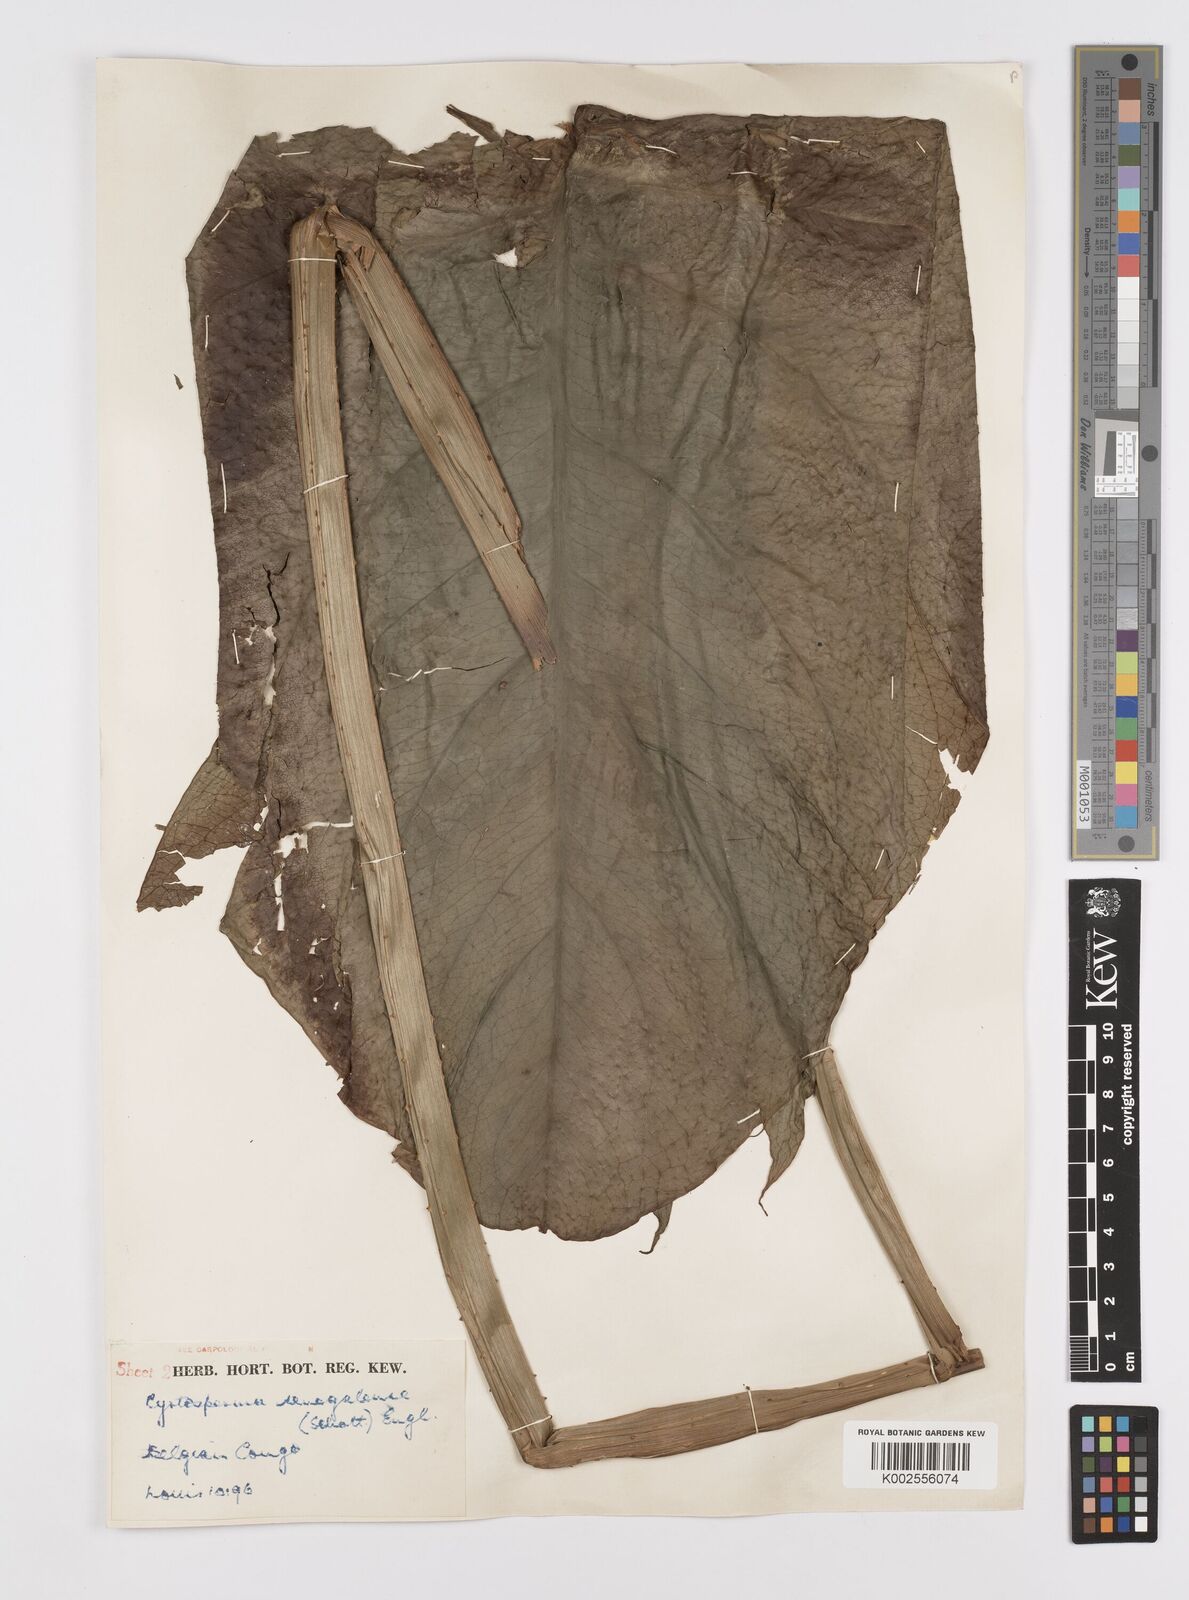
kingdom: Plantae
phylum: Tracheophyta
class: Liliopsida
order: Alismatales
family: Araceae
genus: Lasimorpha
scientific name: Lasimorpha senegalensis
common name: Swamp arum
